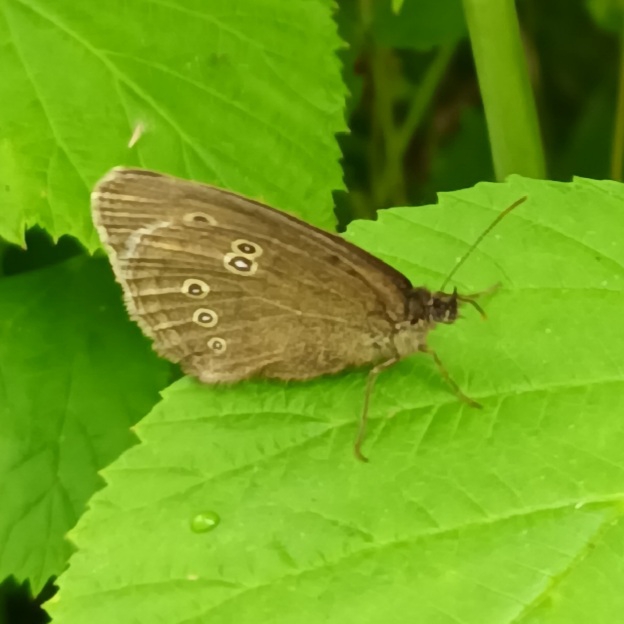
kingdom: Animalia
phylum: Arthropoda
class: Insecta
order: Lepidoptera
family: Nymphalidae
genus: Aphantopus
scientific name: Aphantopus hyperantus
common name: Engrandøje
